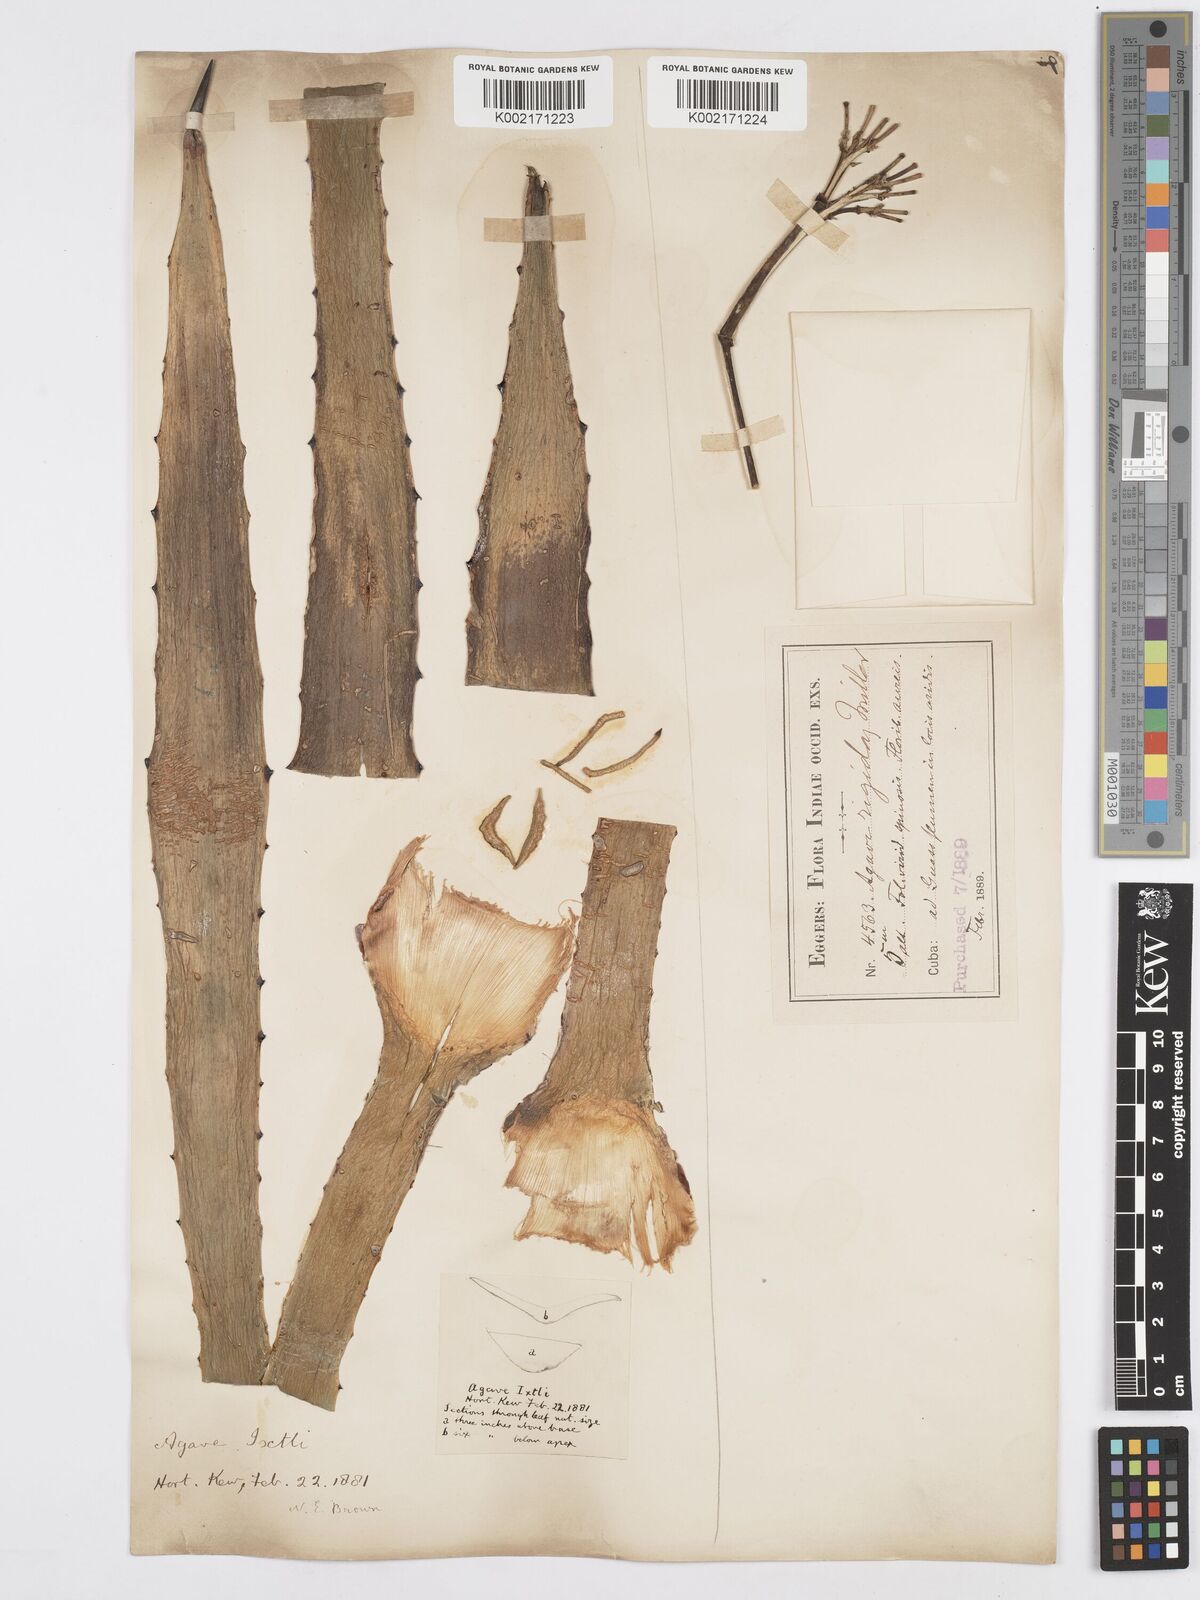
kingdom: Plantae
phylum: Tracheophyta
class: Liliopsida
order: Asparagales
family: Asparagaceae
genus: Agave
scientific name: Agave angustifolia
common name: Mescal agave
